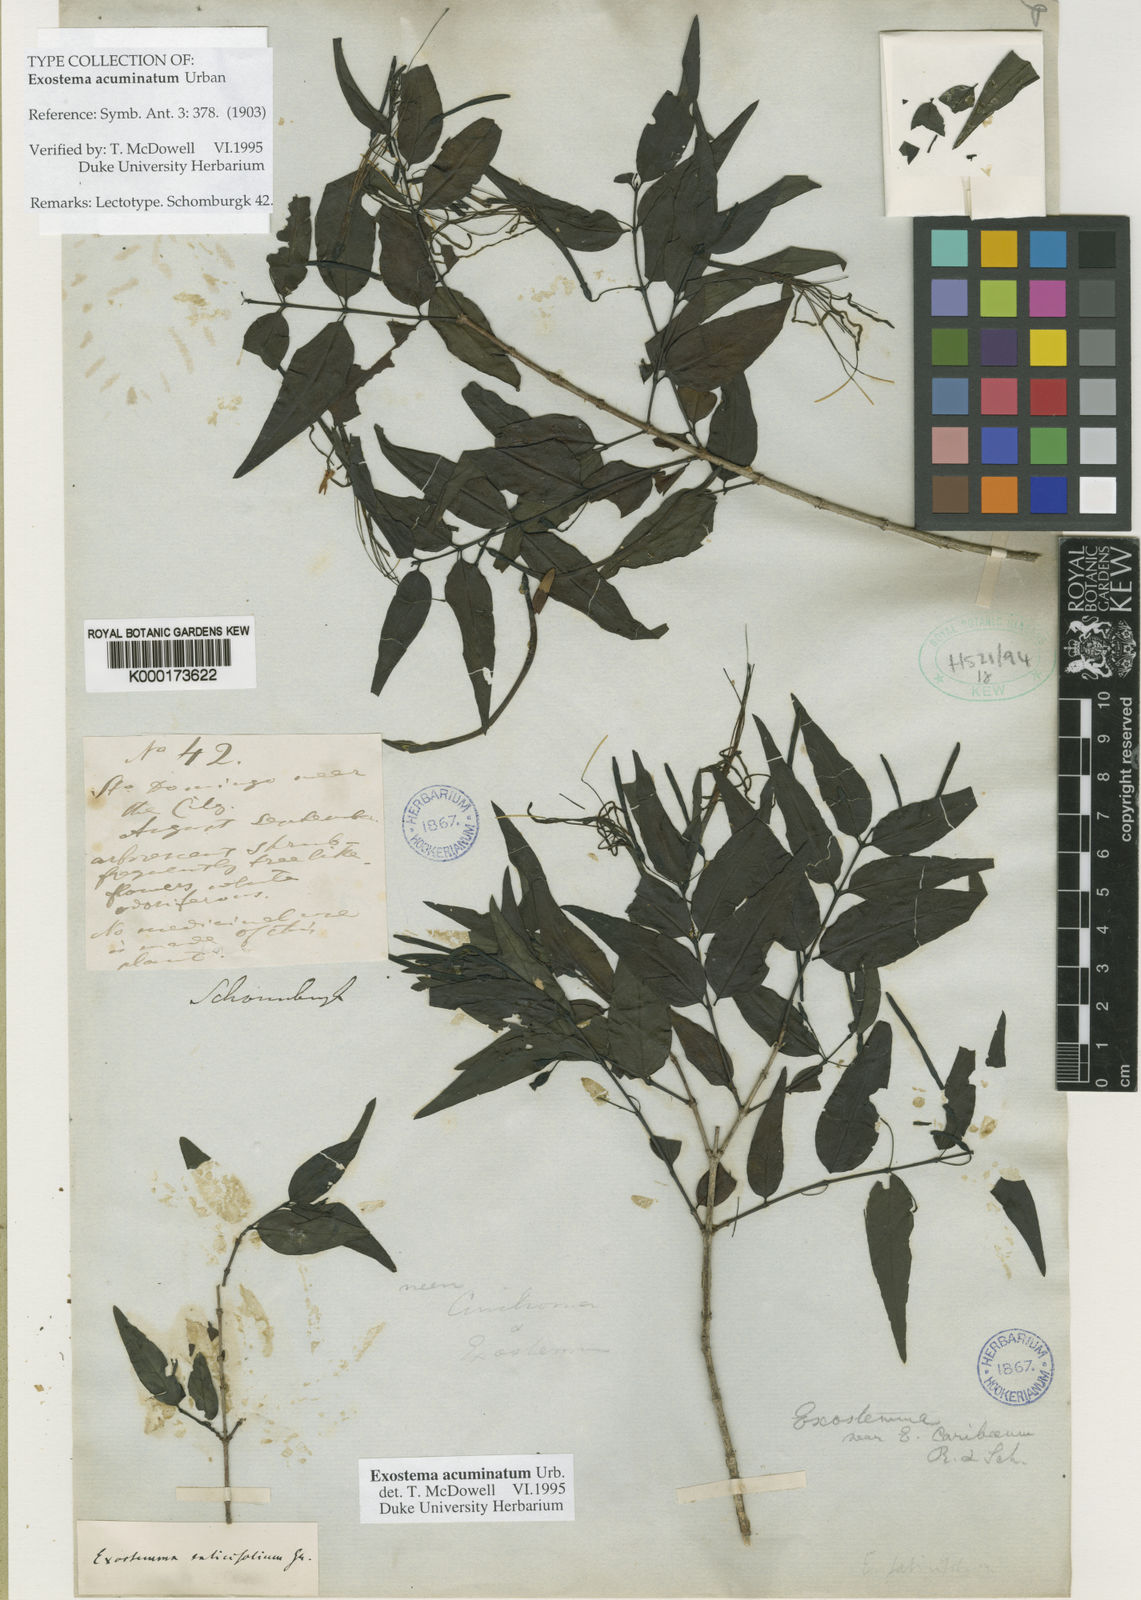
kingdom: Plantae
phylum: Tracheophyta
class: Magnoliopsida
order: Gentianales
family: Rubiaceae
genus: Exostema
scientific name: Exostema acuminatum
